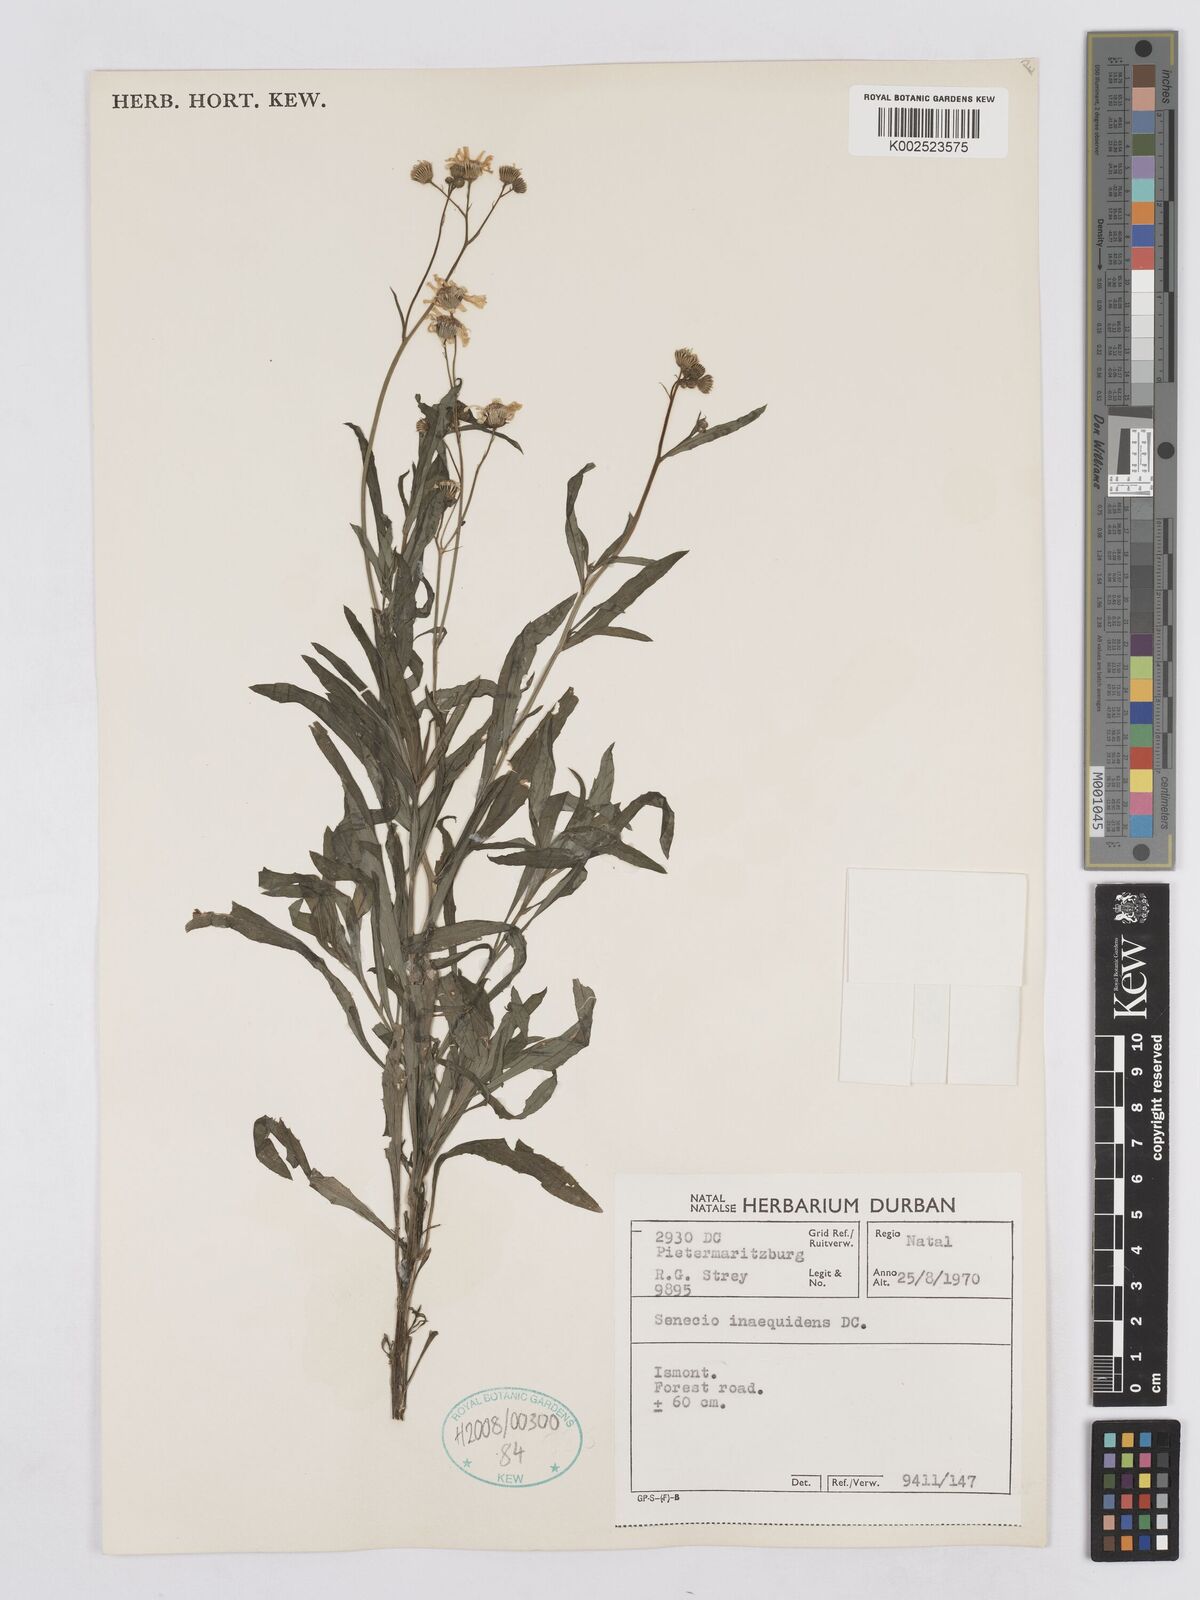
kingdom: Plantae
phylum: Tracheophyta
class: Magnoliopsida
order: Asterales
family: Asteraceae
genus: Senecio
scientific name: Senecio inaequidens
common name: Narrow-leaved ragwort
